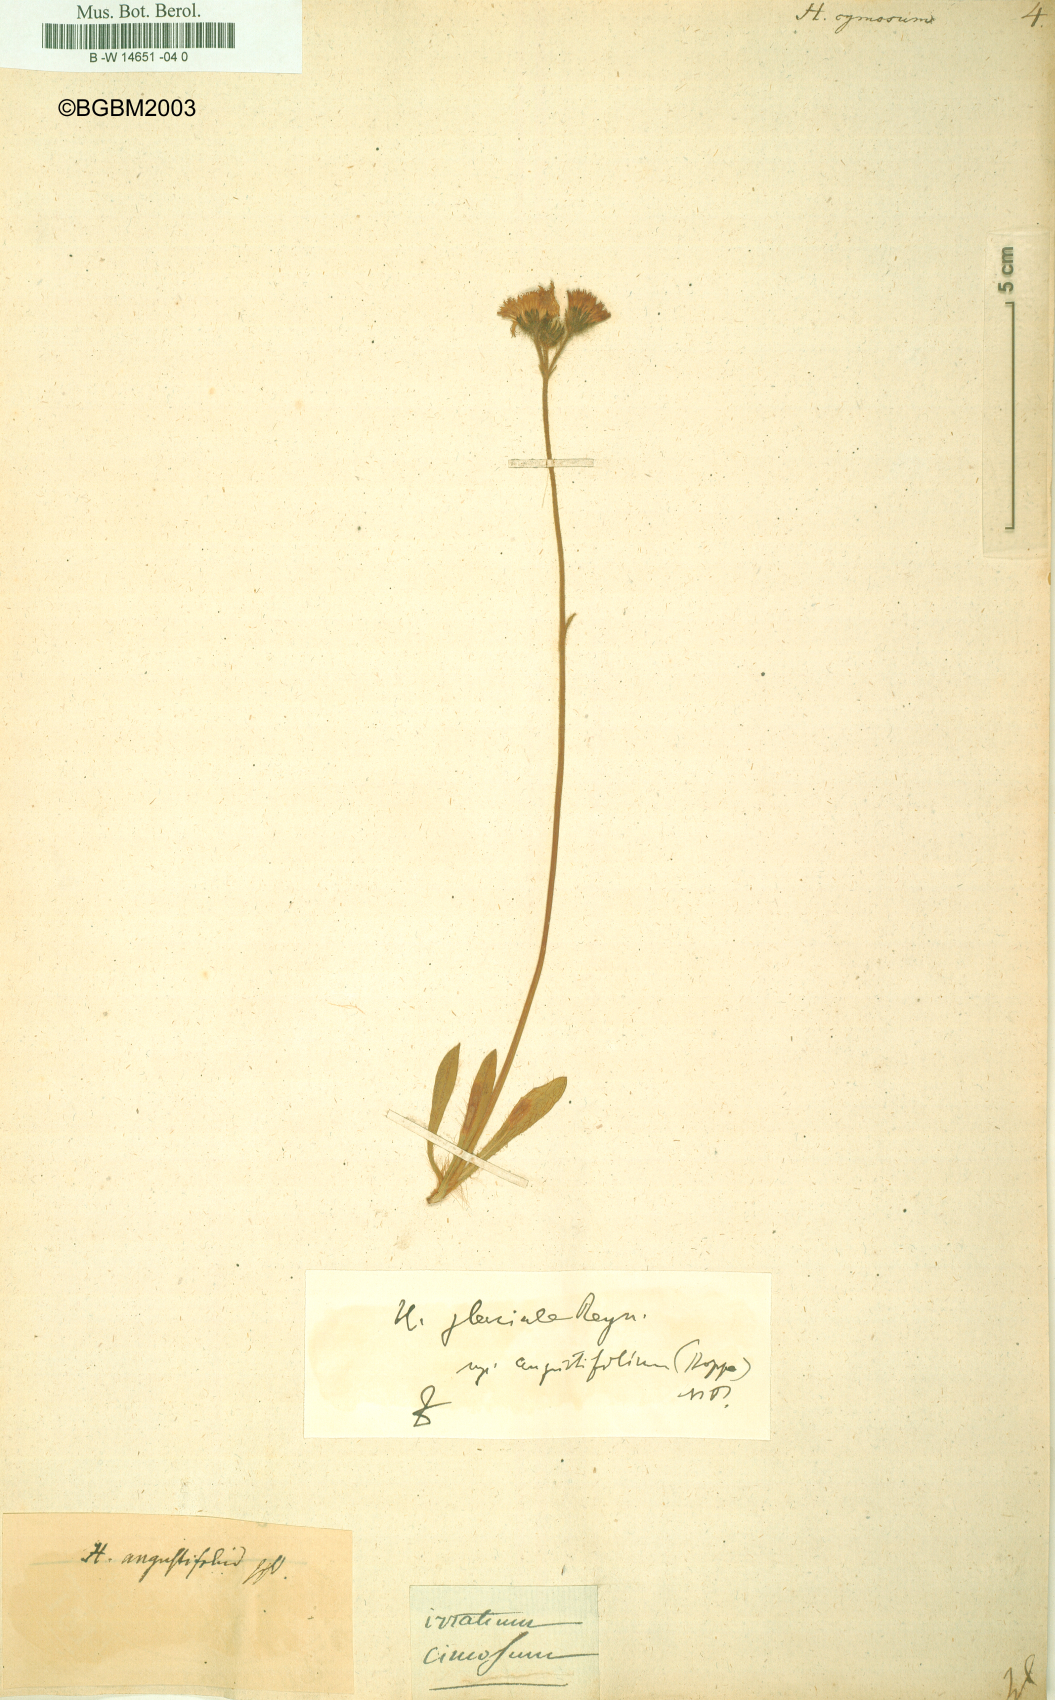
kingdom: Plantae
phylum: Tracheophyta
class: Magnoliopsida
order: Asterales
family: Asteraceae
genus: Hieracium
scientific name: Hieracium cymosum
